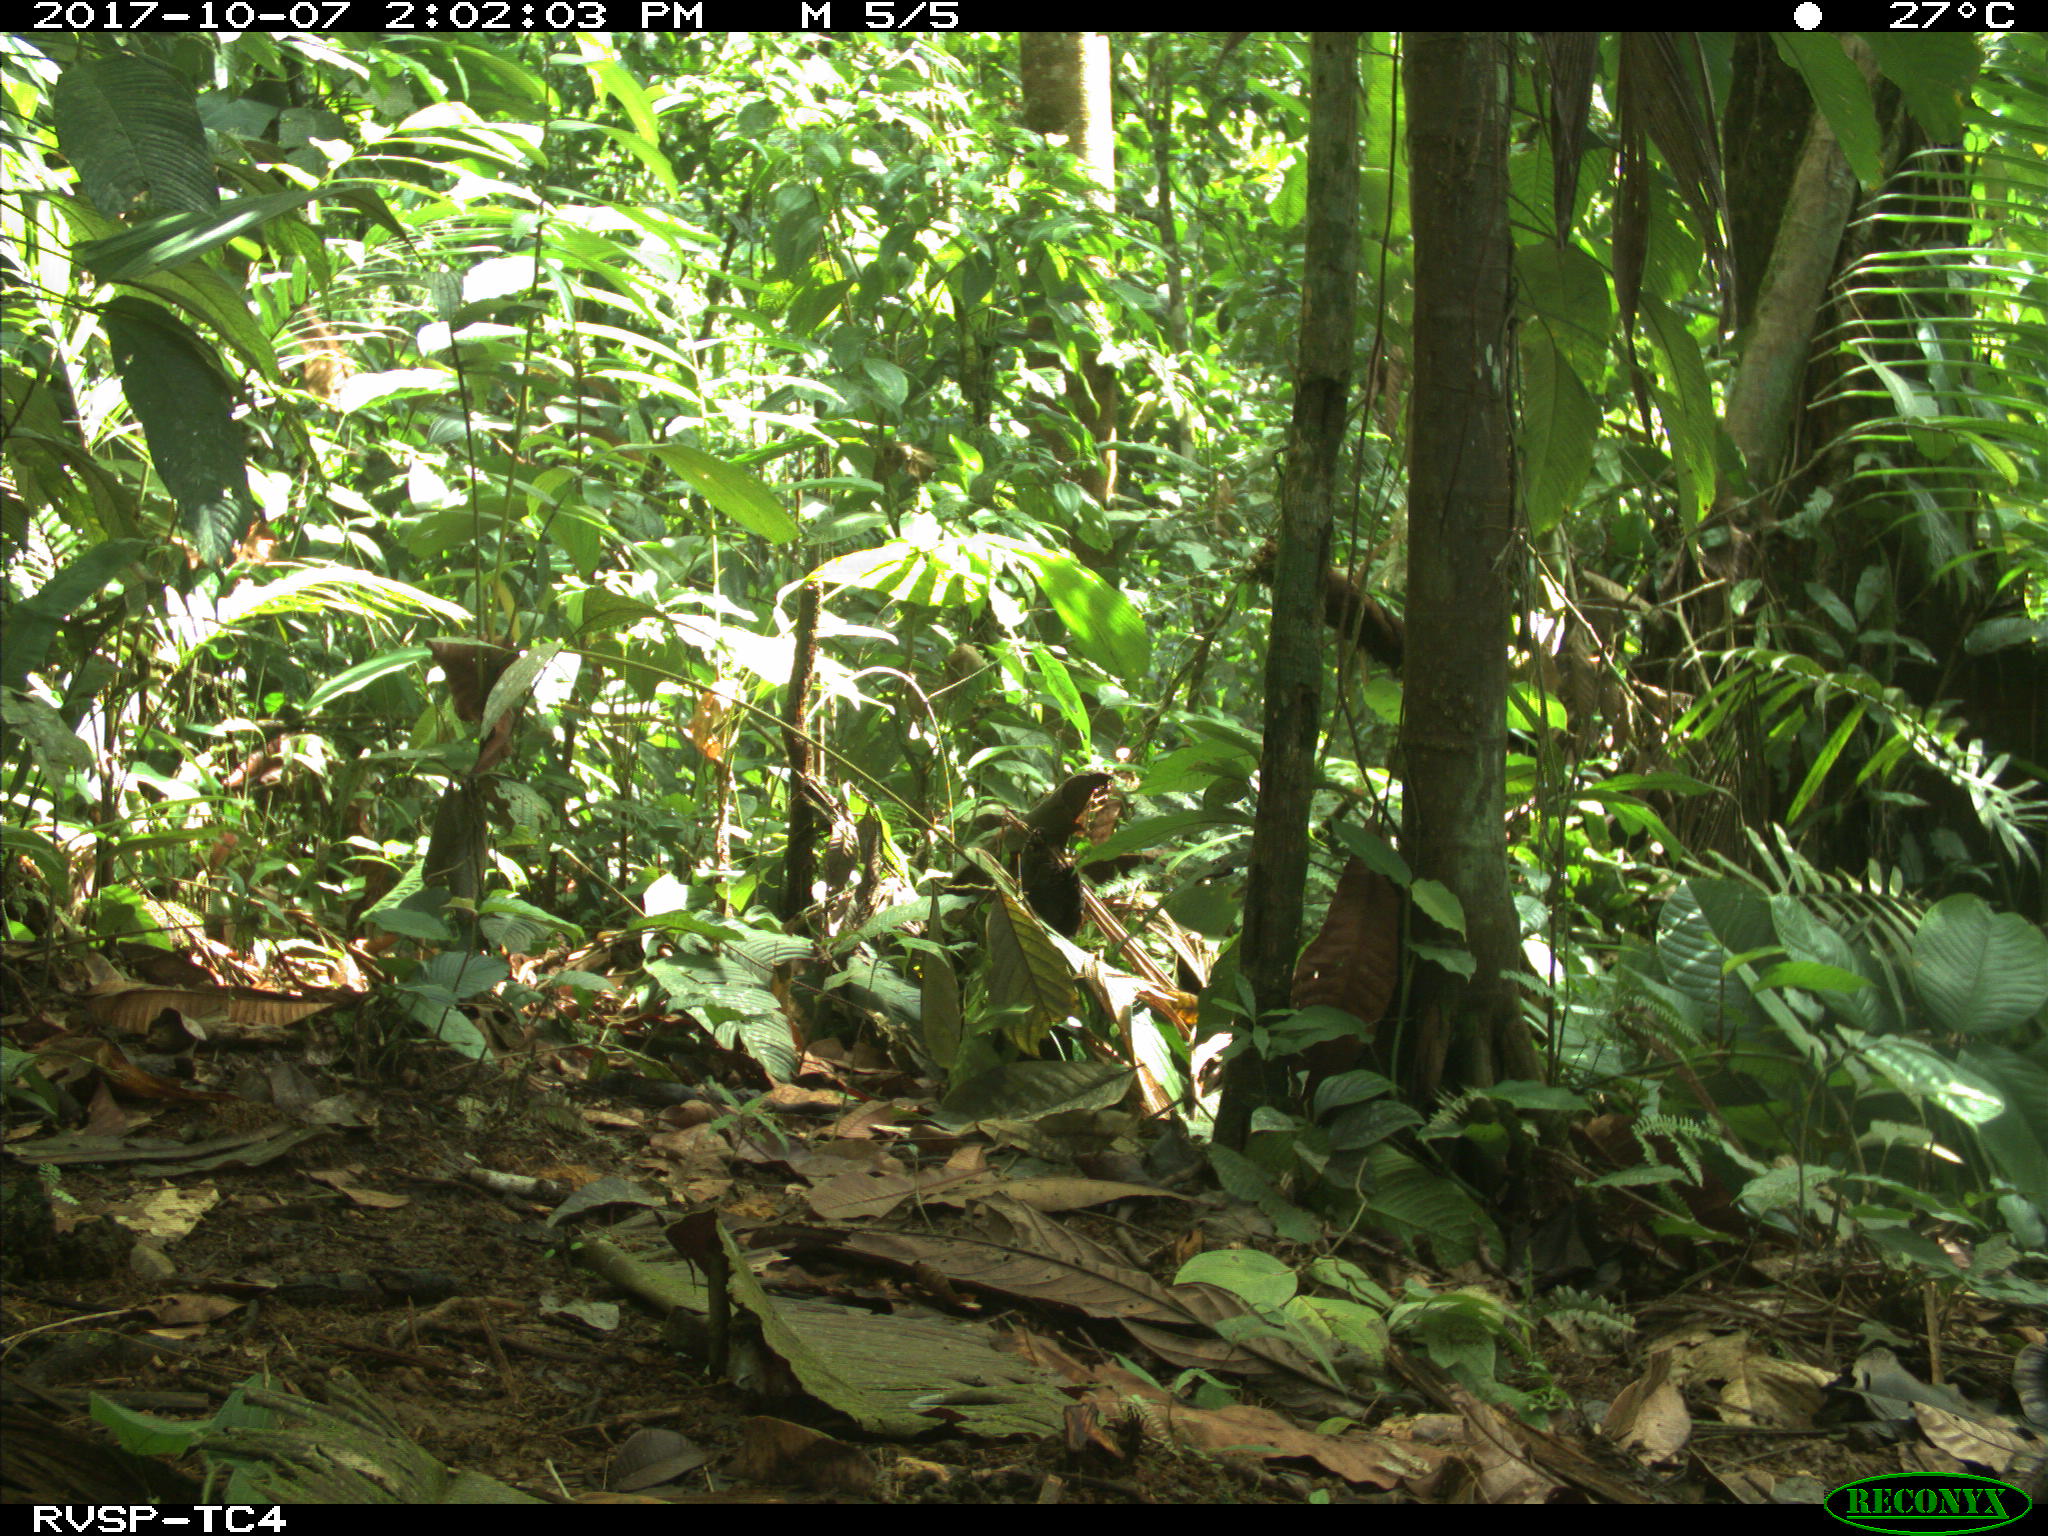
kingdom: Animalia
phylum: Chordata
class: Mammalia
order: Rodentia
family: Dasyproctidae
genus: Dasyprocta
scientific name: Dasyprocta punctata
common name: Central american agouti
